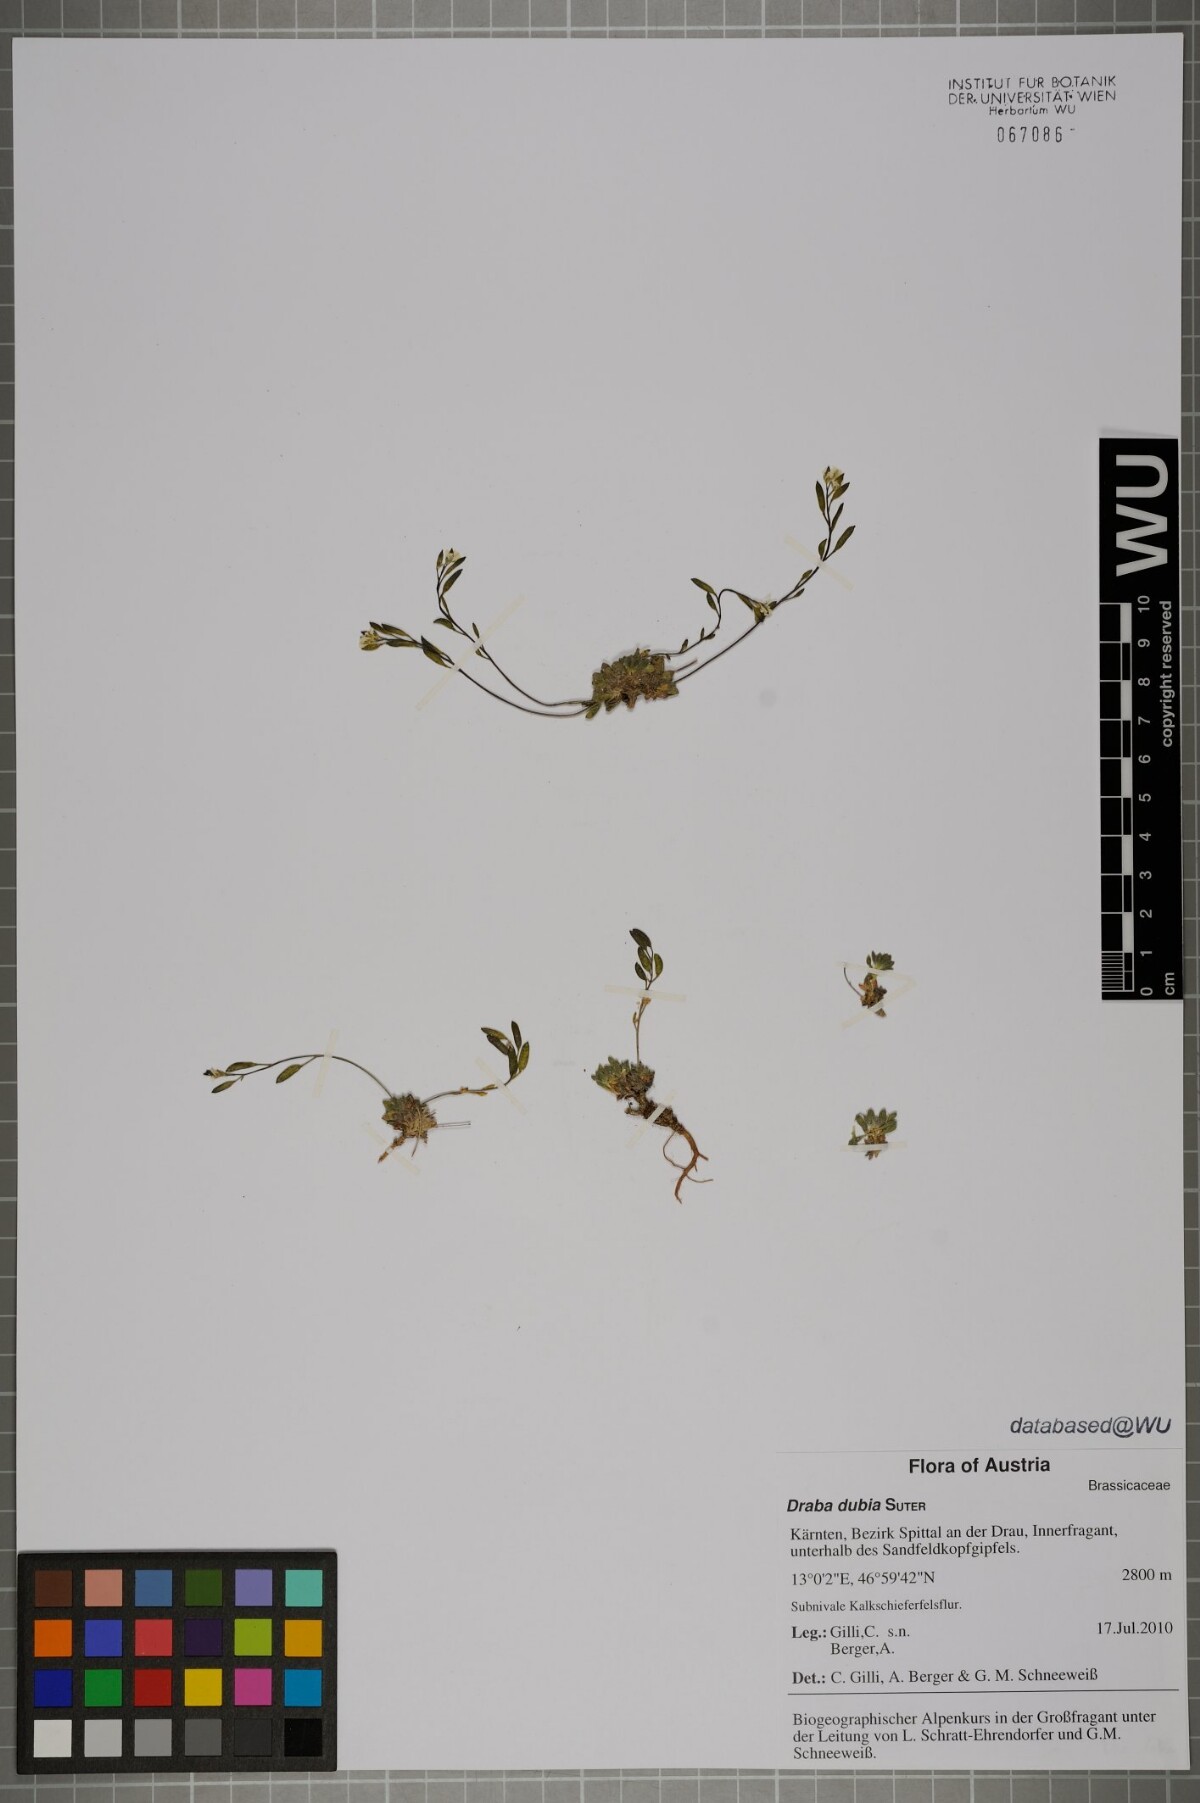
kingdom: Plantae
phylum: Tracheophyta
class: Magnoliopsida
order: Brassicales
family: Brassicaceae
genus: Draba
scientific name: Draba dubia
